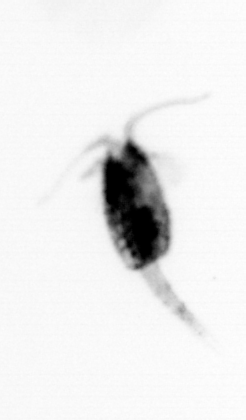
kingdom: Animalia
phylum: Arthropoda
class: Copepoda
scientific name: Copepoda
